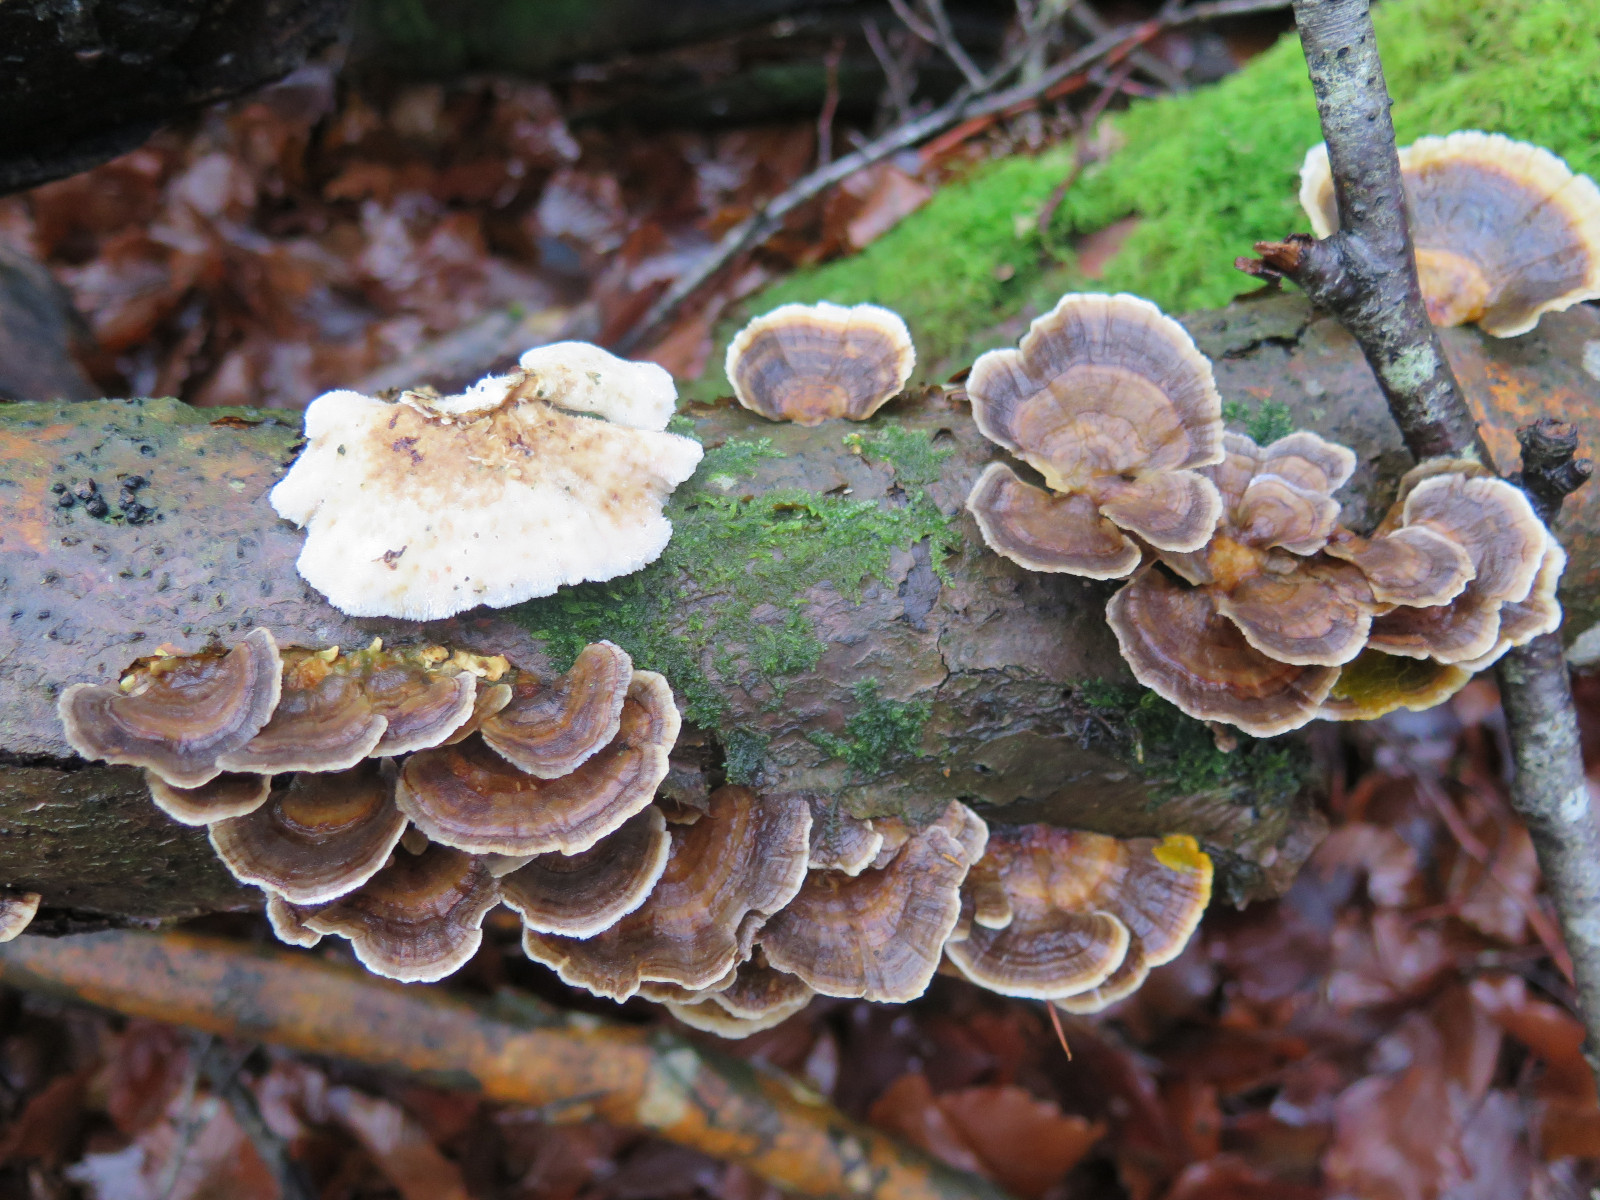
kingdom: Fungi
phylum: Basidiomycota
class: Agaricomycetes
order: Polyporales
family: Polyporaceae
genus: Trametes
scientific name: Trametes versicolor
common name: broget læderporesvamp
